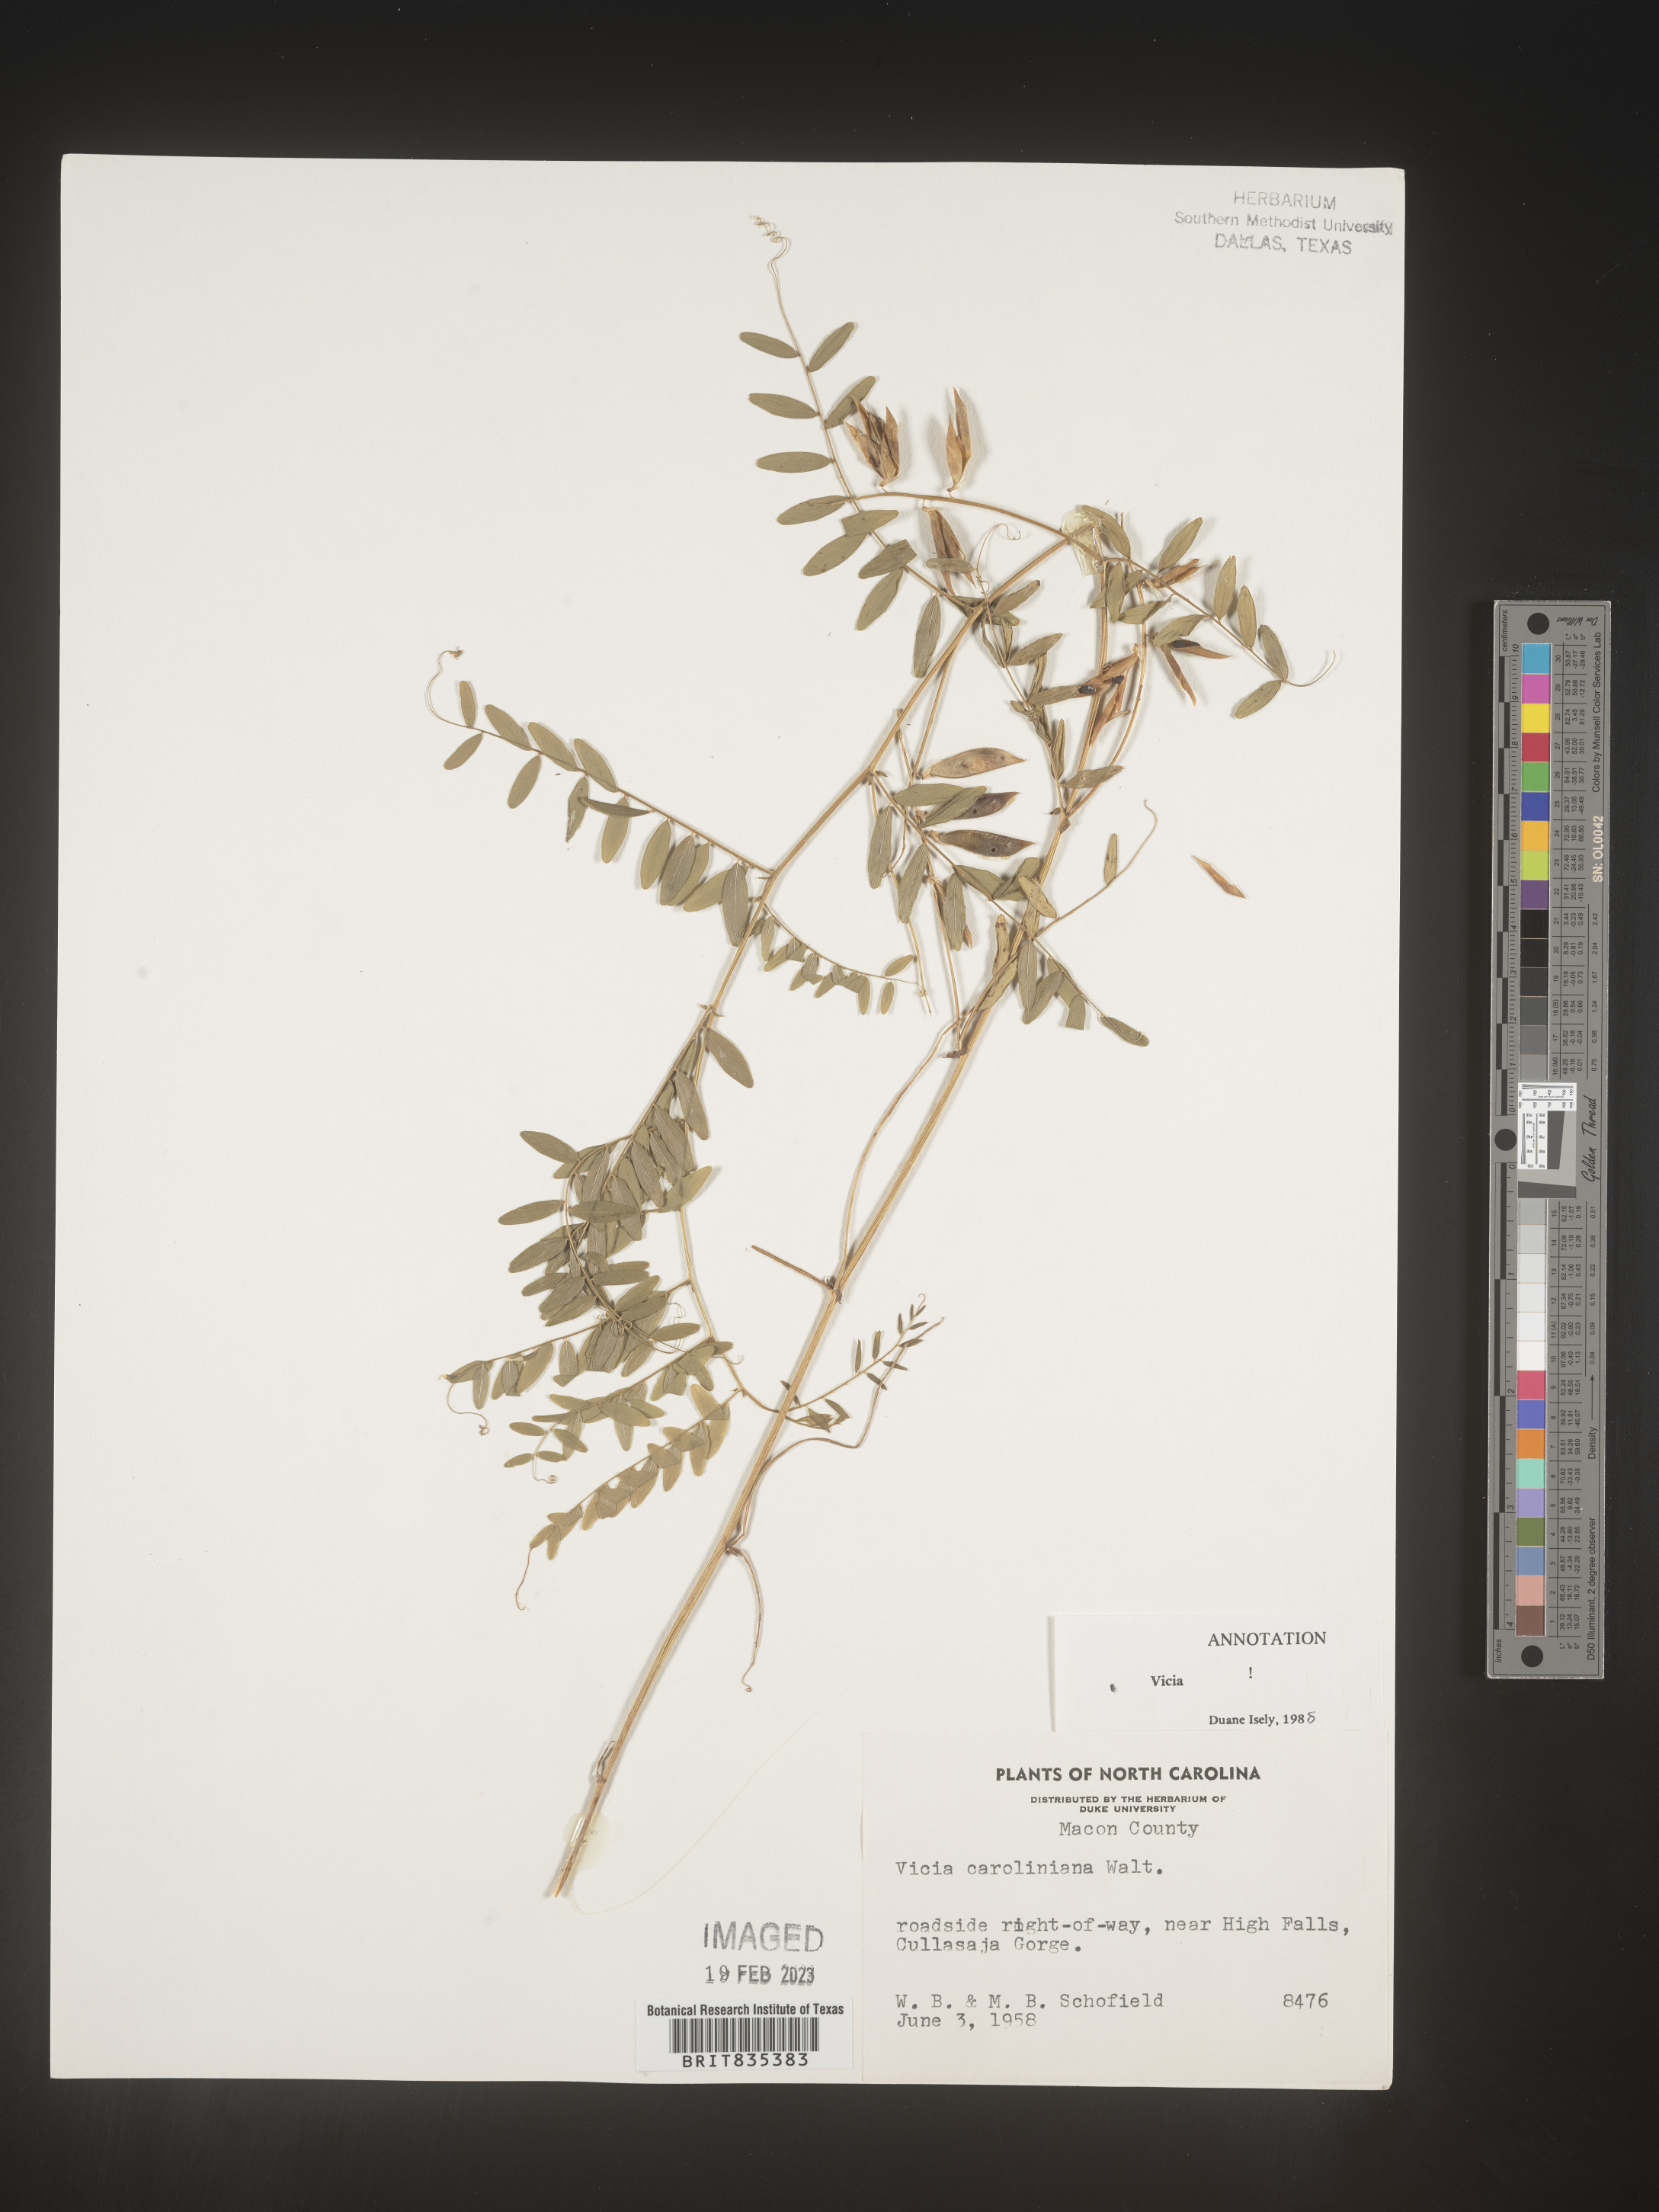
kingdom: Plantae
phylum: Tracheophyta
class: Magnoliopsida
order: Fabales
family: Fabaceae
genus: Vicia
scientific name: Vicia caroliniana
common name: Carolina vetch
